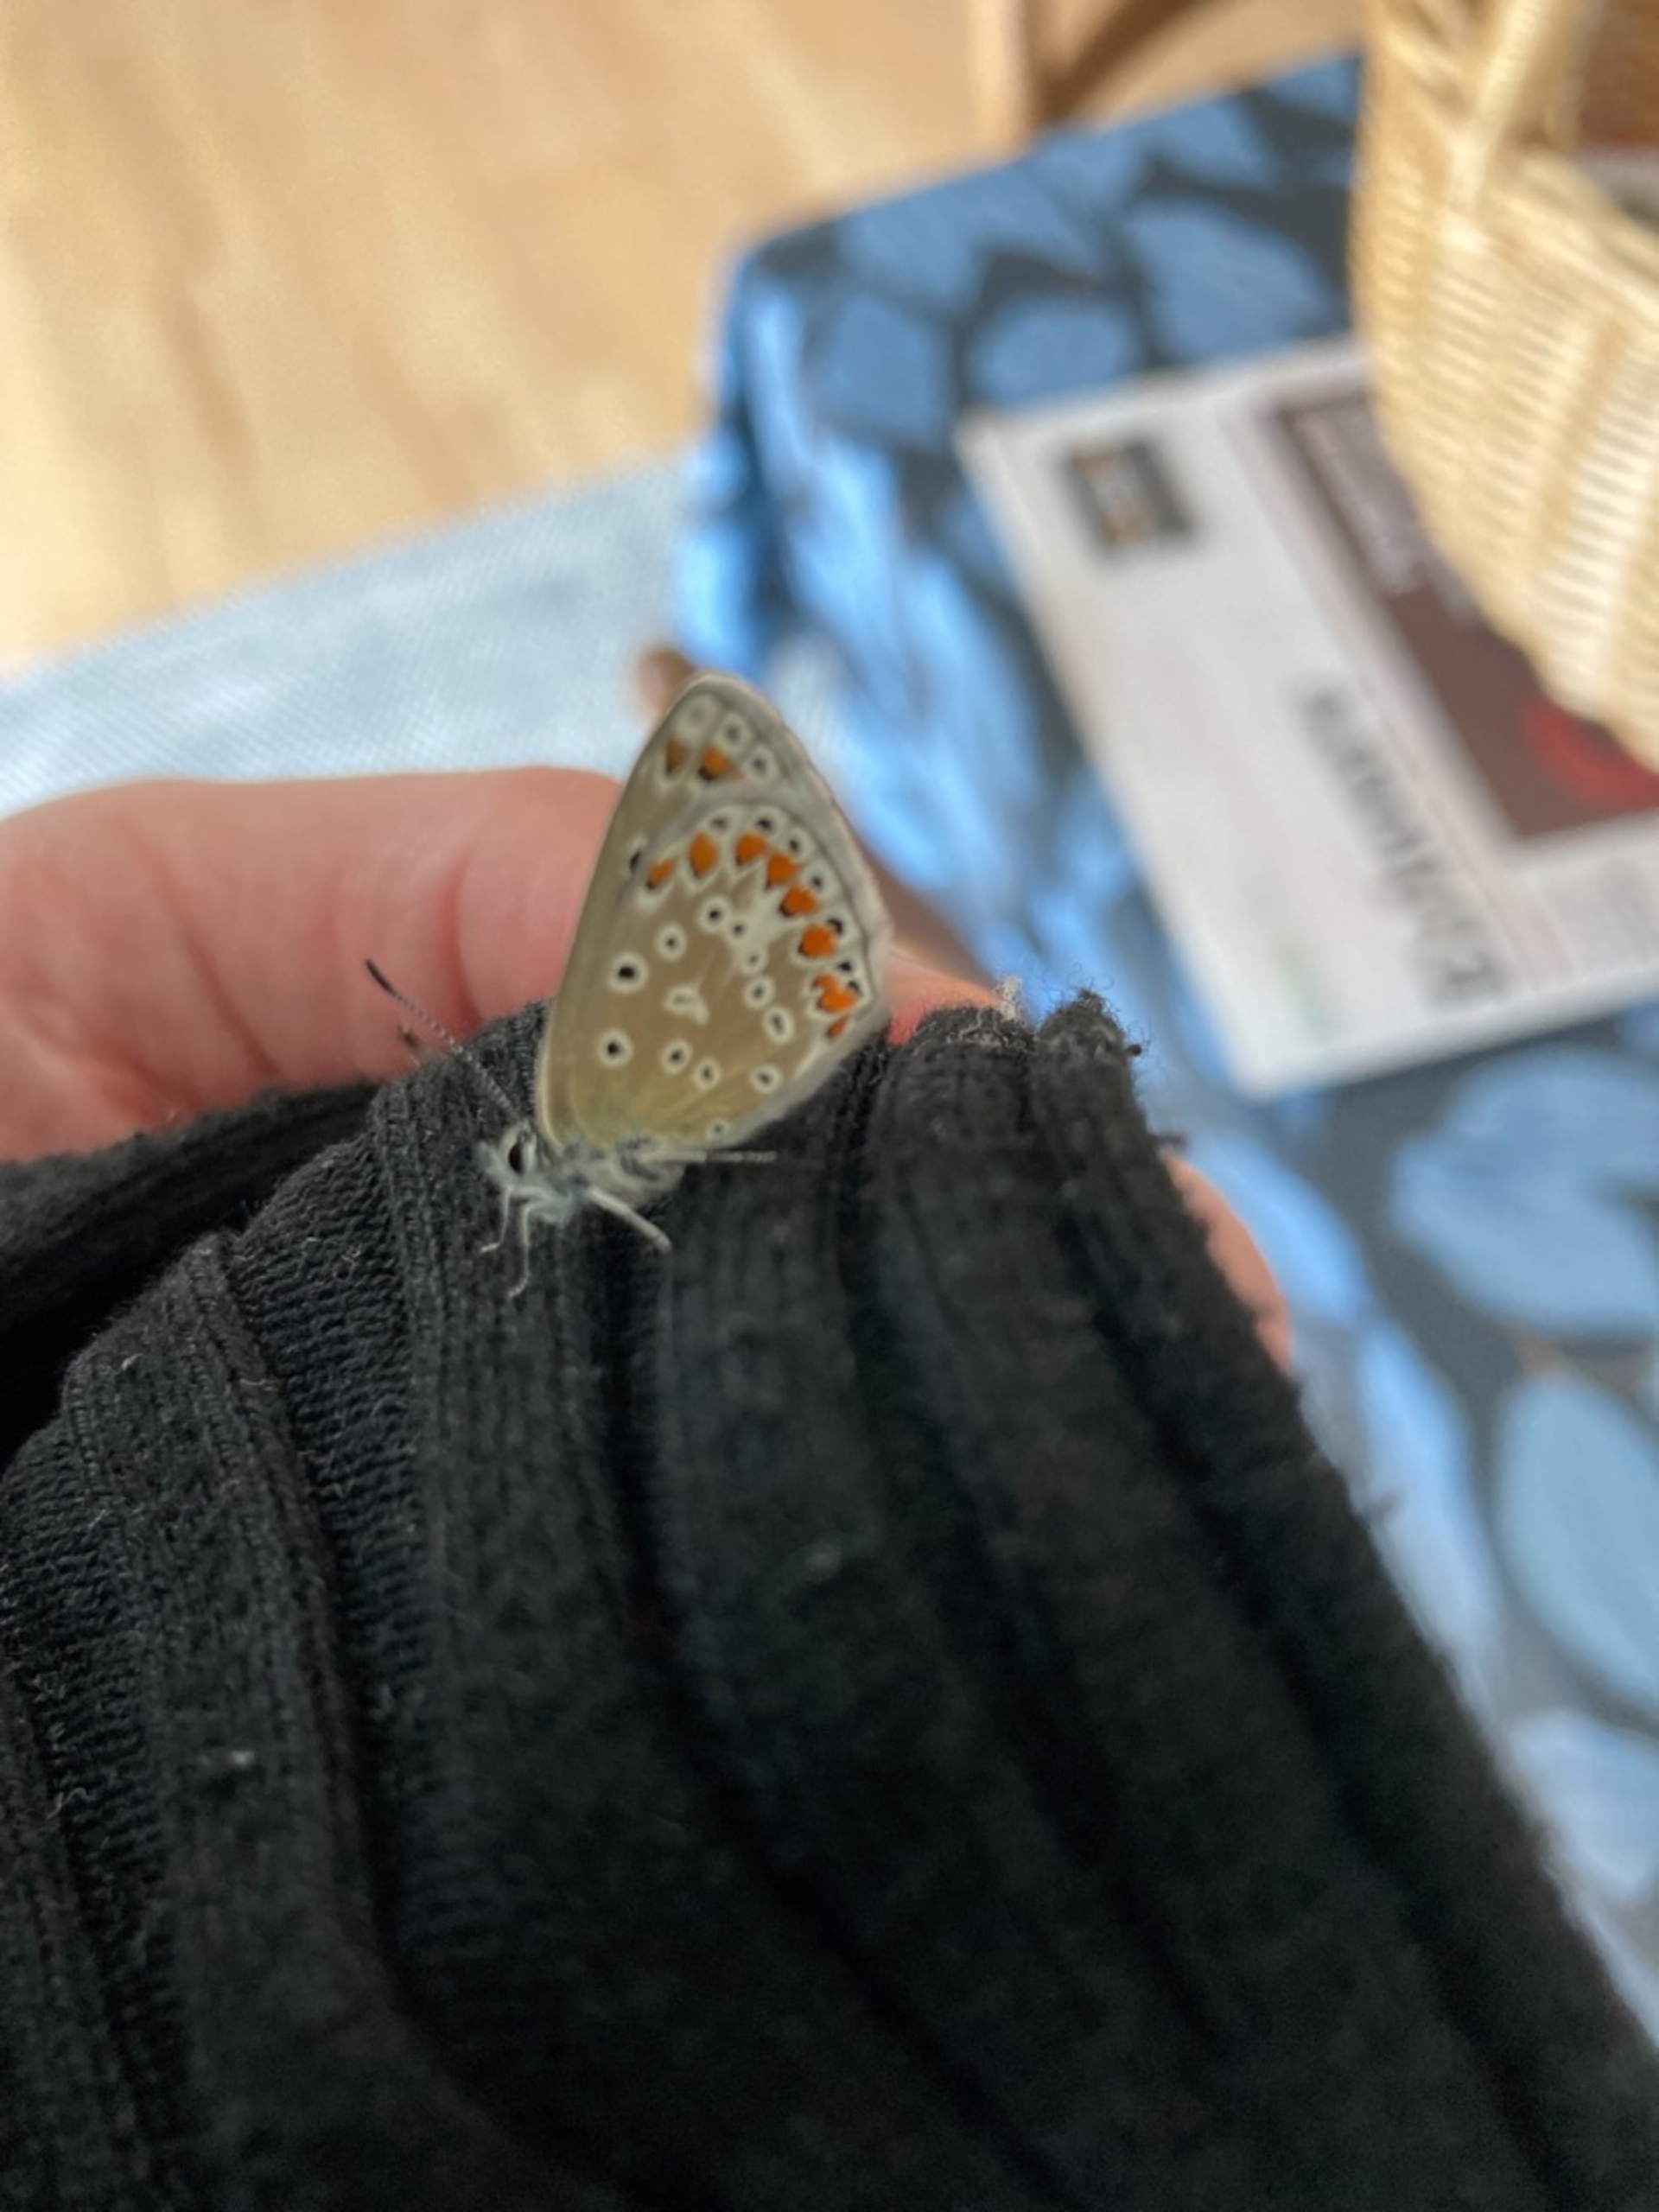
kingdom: Animalia
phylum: Arthropoda
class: Insecta
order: Lepidoptera
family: Lycaenidae
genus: Polyommatus
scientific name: Polyommatus icarus
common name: Almindelig blåfugl
